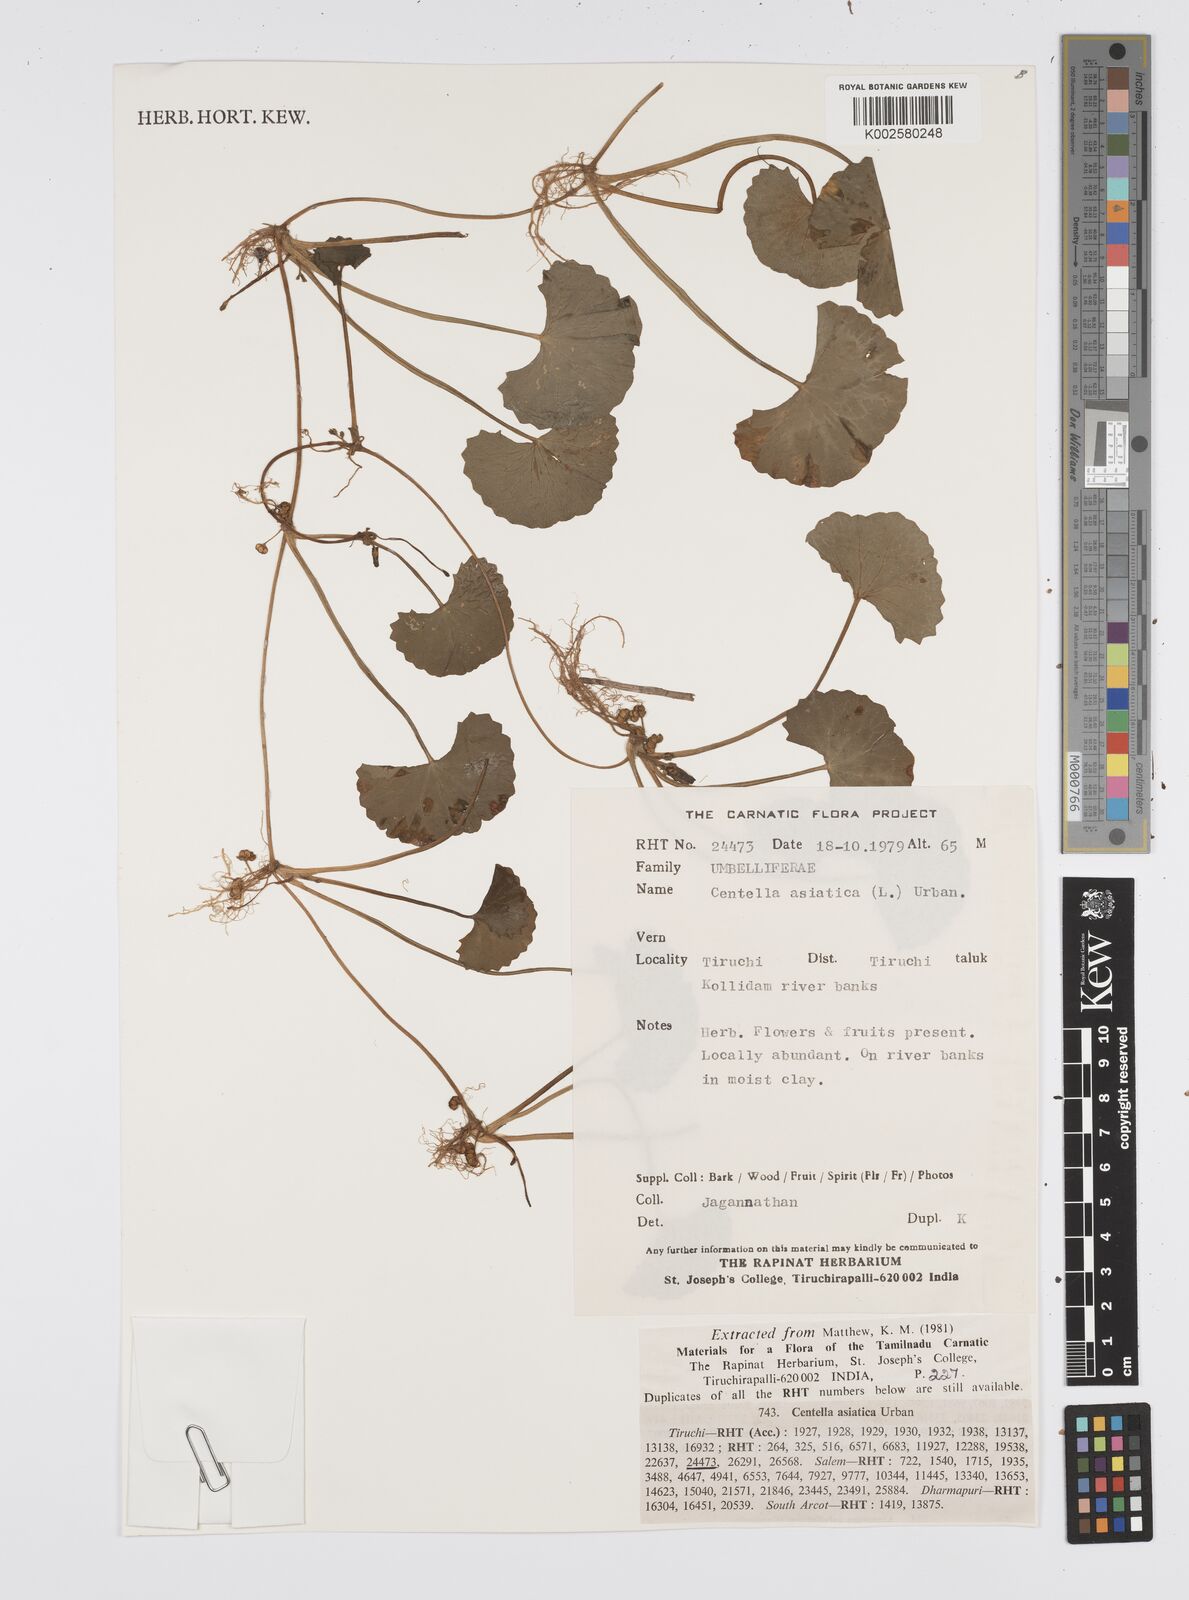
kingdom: Plantae
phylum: Tracheophyta
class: Magnoliopsida
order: Apiales
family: Apiaceae
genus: Centella
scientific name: Centella asiatica
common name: Spadeleaf
